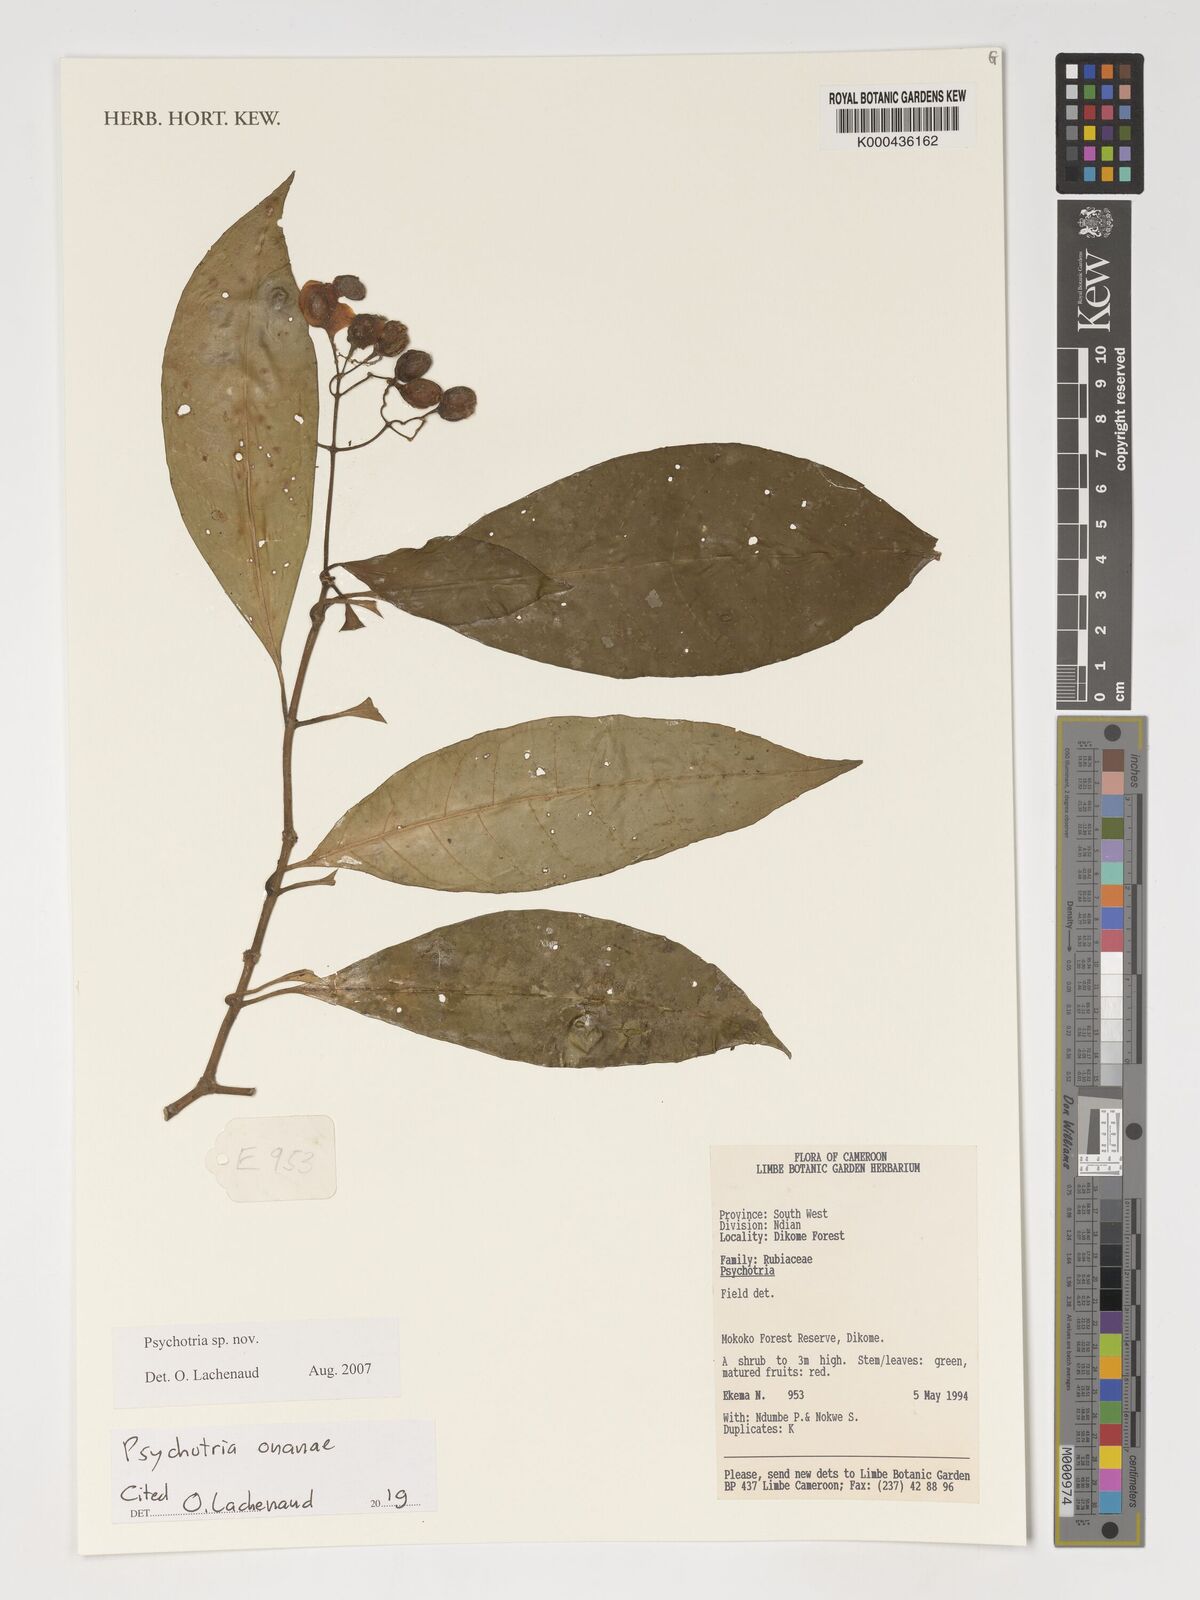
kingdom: Plantae
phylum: Tracheophyta
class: Magnoliopsida
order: Gentianales
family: Rubiaceae
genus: Psychotria
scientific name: Psychotria onanae
